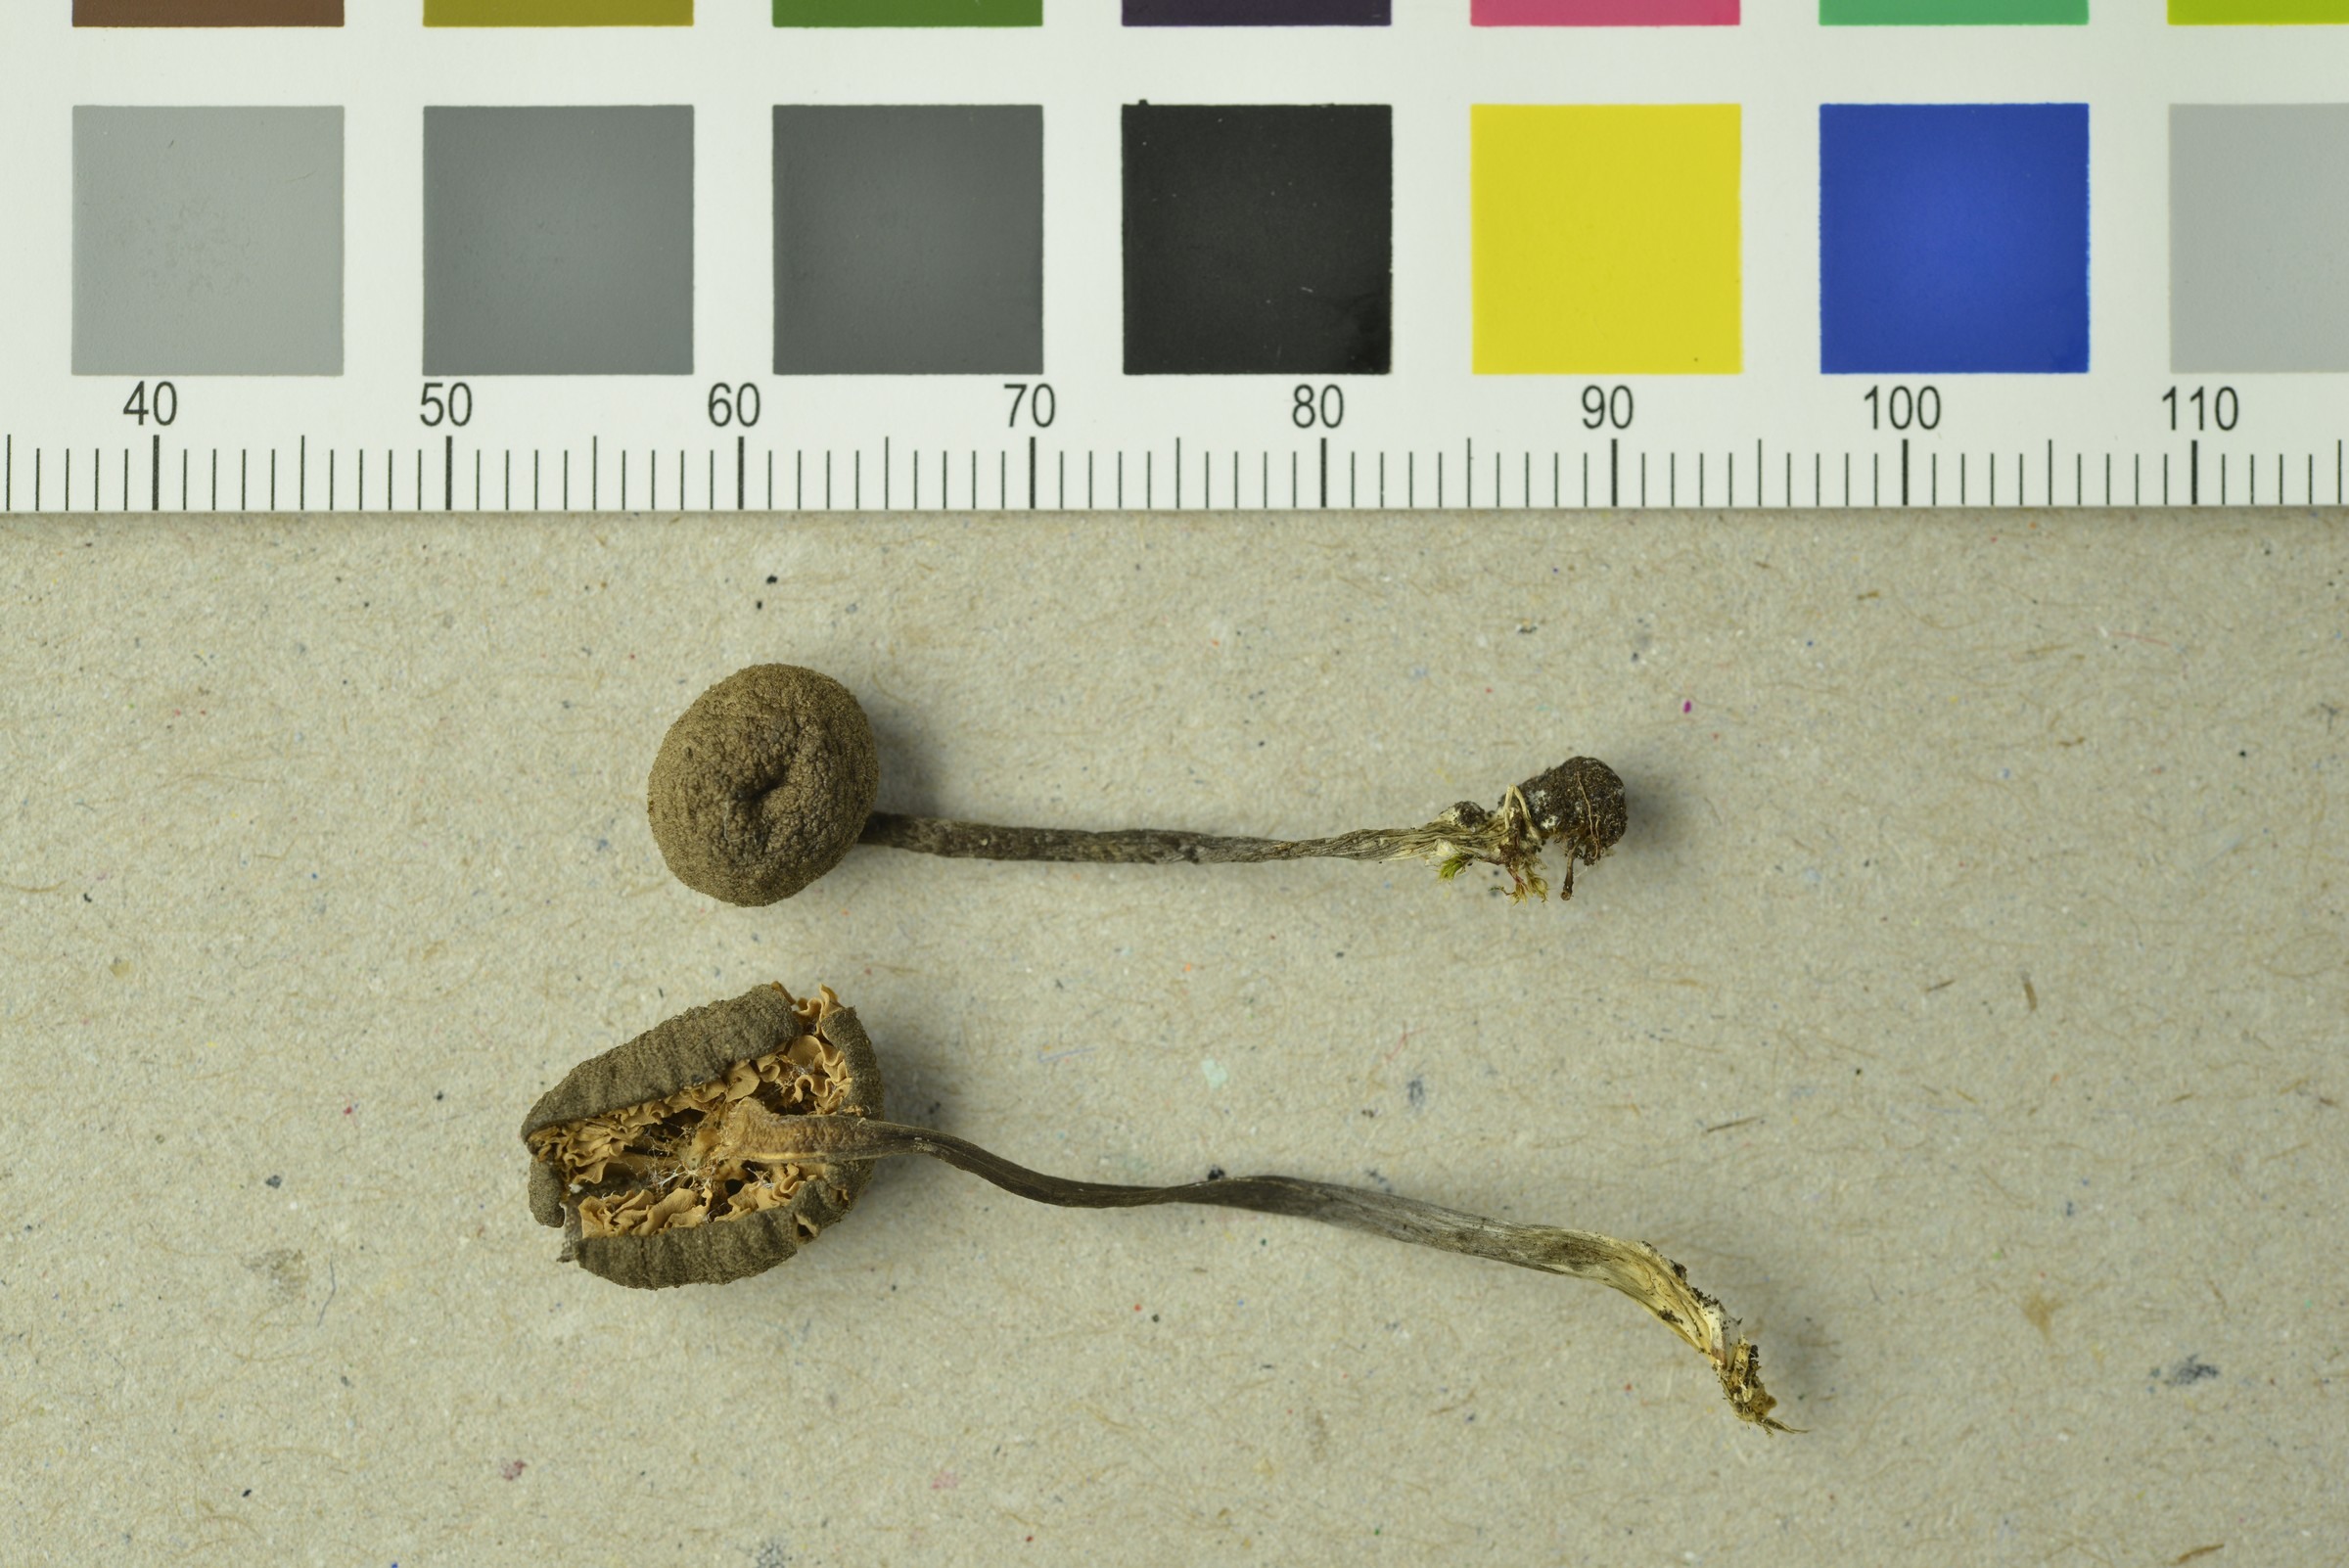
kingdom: Fungi
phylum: Basidiomycota
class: Agaricomycetes
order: Agaricales
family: Entolomataceae
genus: Entoloma
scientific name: Entoloma glaucobasis
